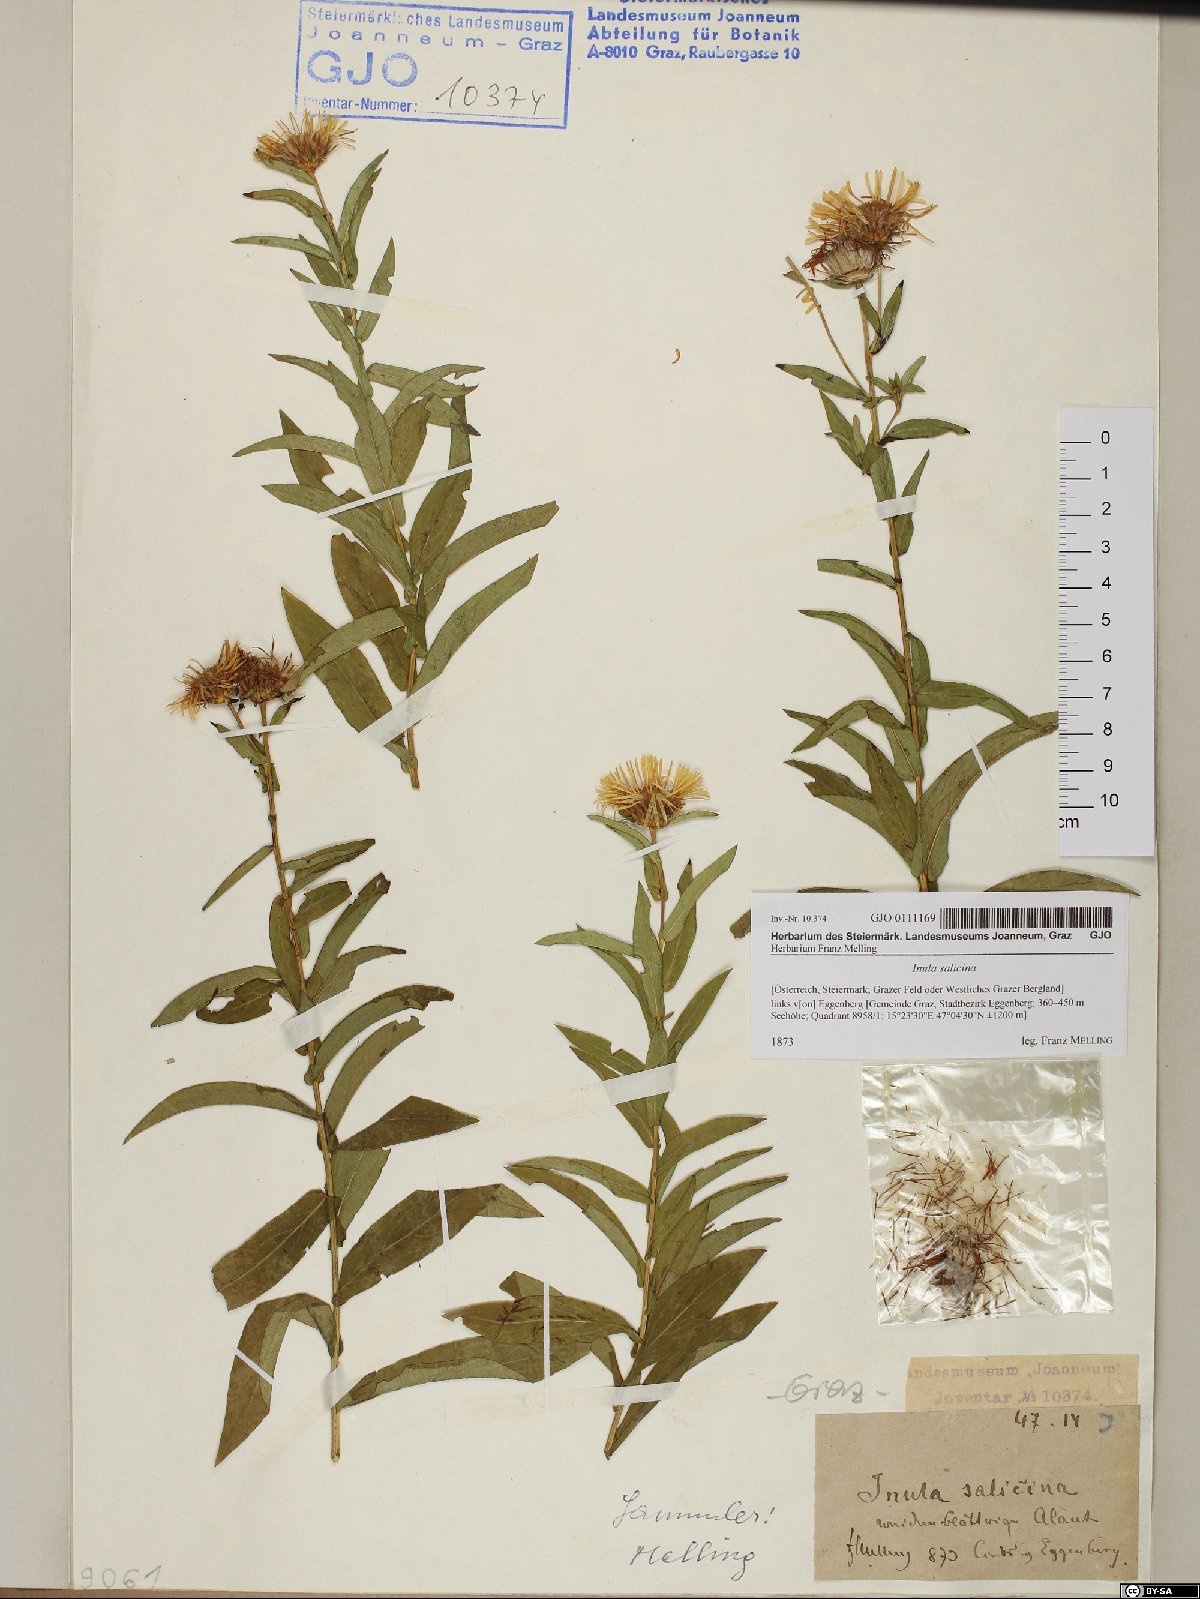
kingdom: Plantae
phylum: Tracheophyta
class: Magnoliopsida
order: Asterales
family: Asteraceae
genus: Pentanema
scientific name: Pentanema salicinum
